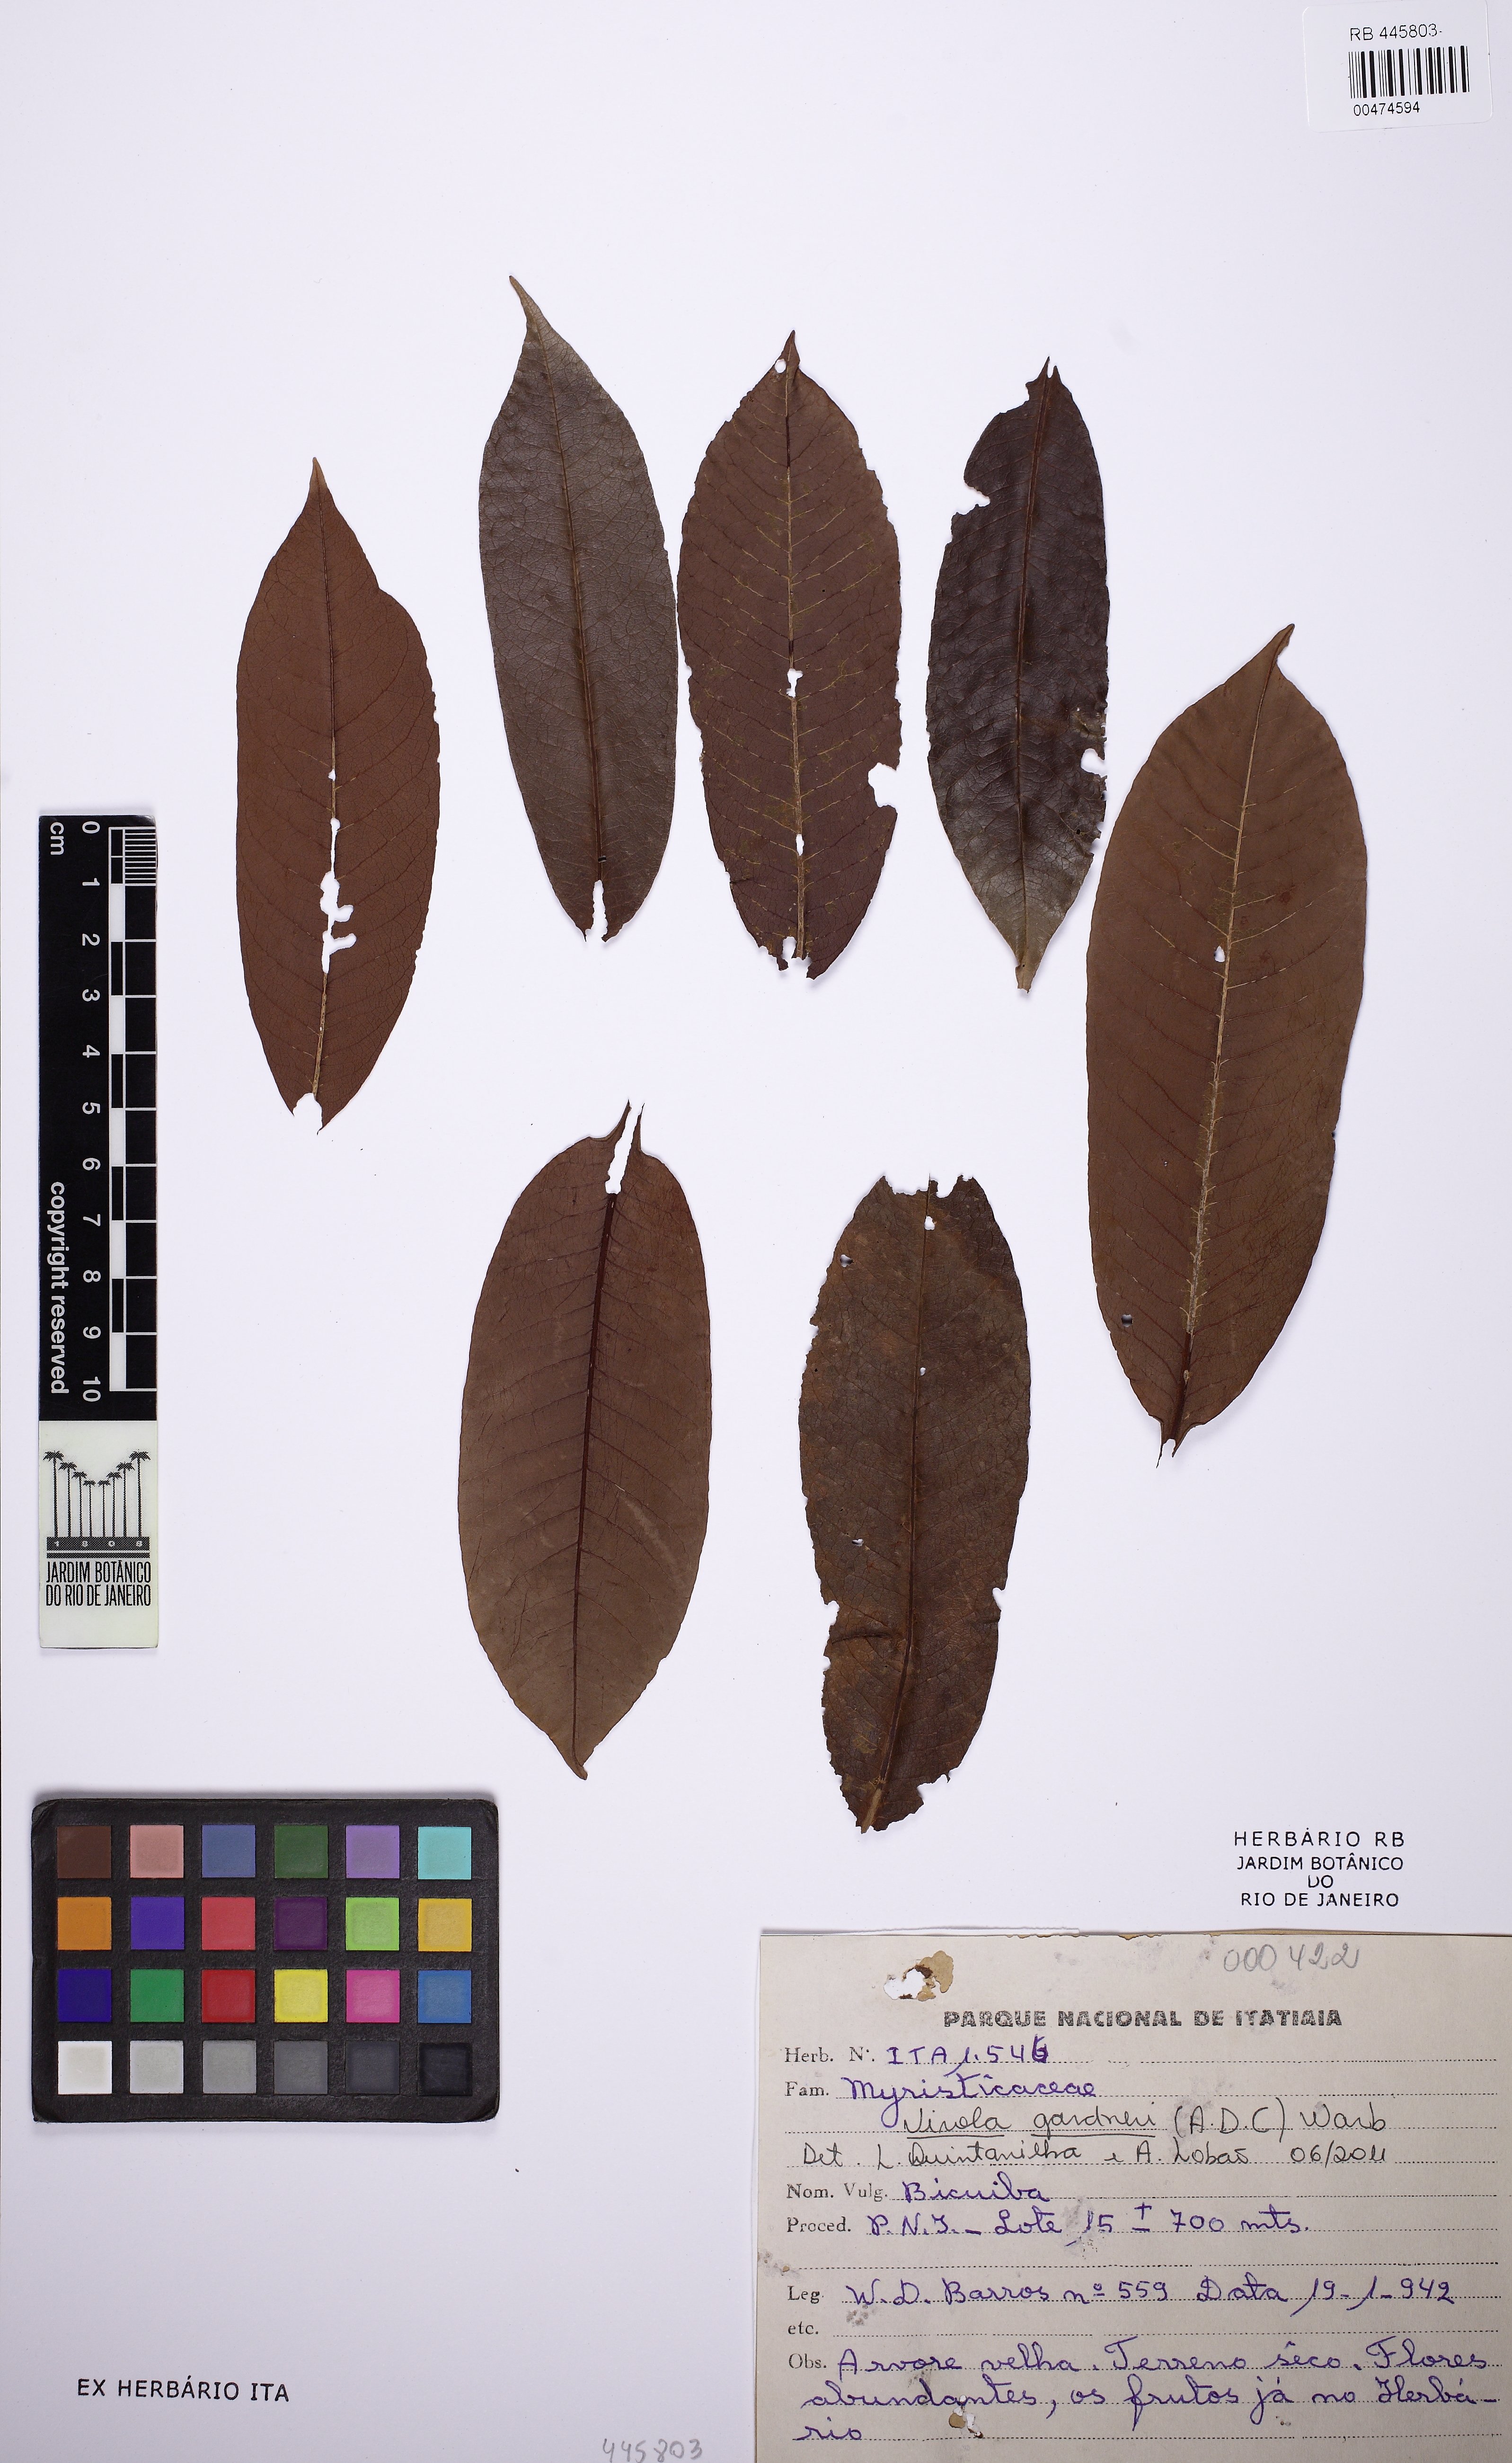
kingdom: Plantae
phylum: Tracheophyta
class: Magnoliopsida
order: Magnoliales
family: Myristicaceae
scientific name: Myristicaceae
